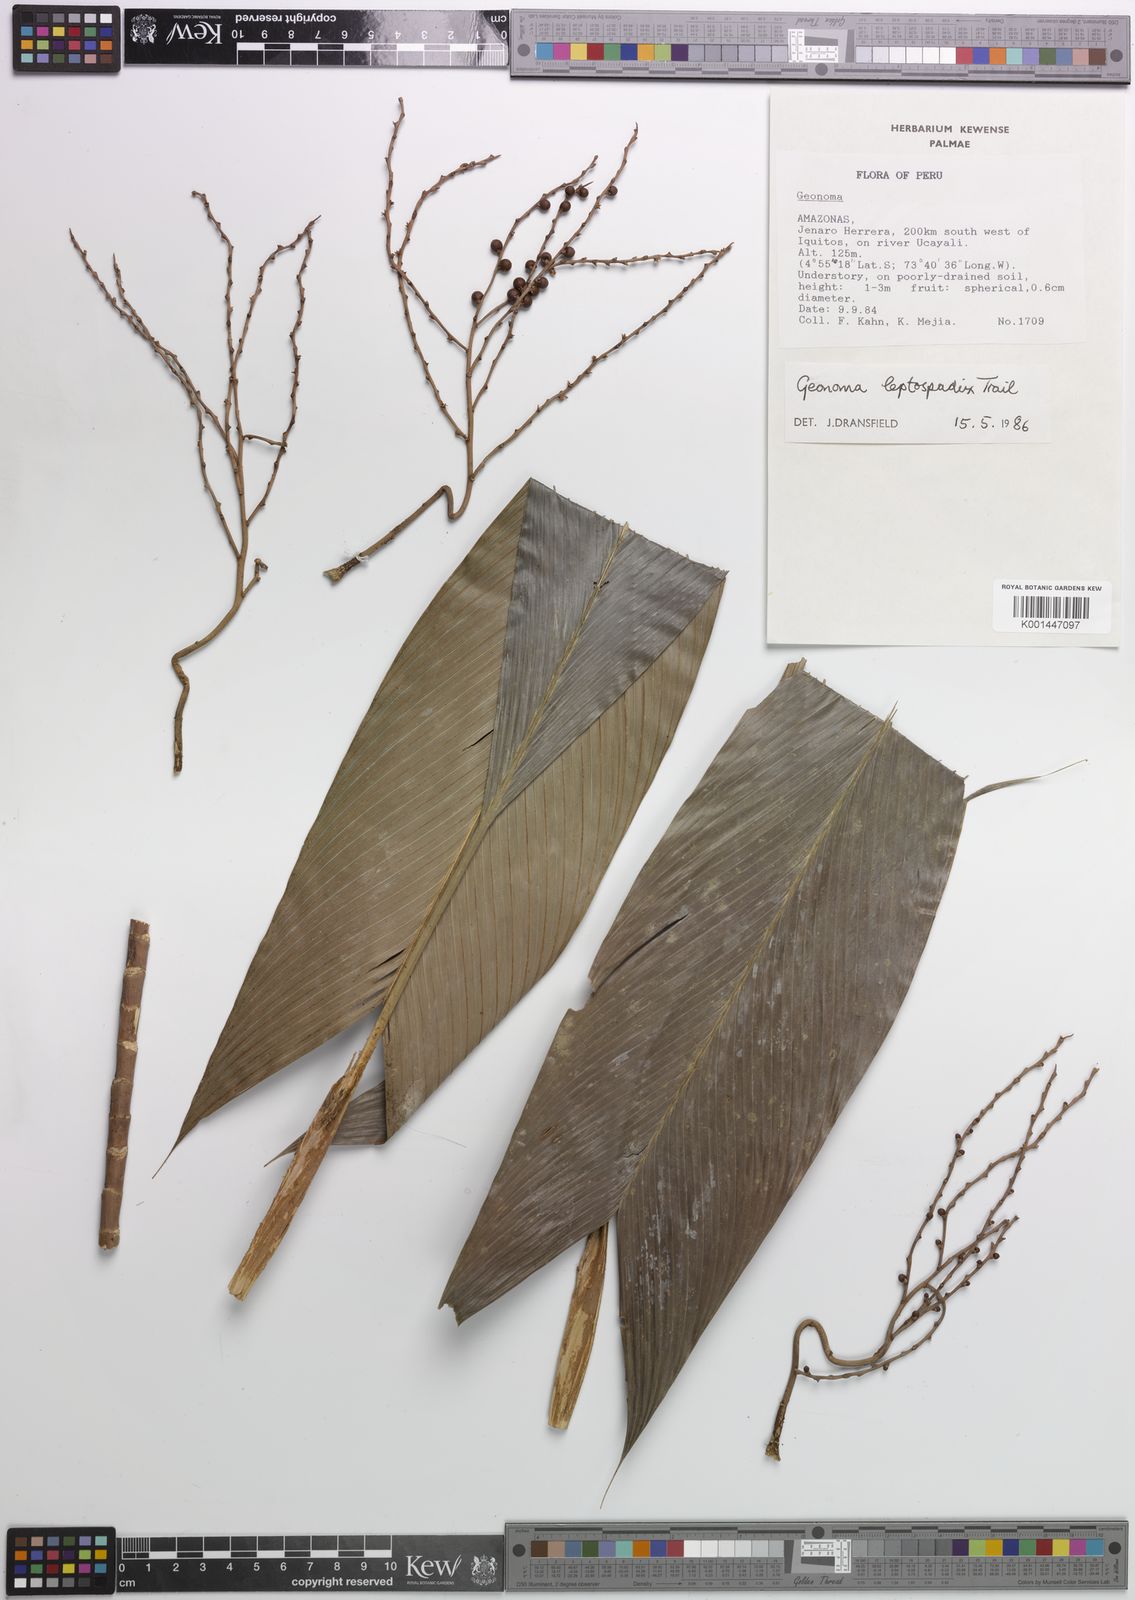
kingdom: Plantae
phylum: Tracheophyta
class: Liliopsida
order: Arecales
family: Arecaceae
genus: Geonoma
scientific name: Geonoma leptospadix
